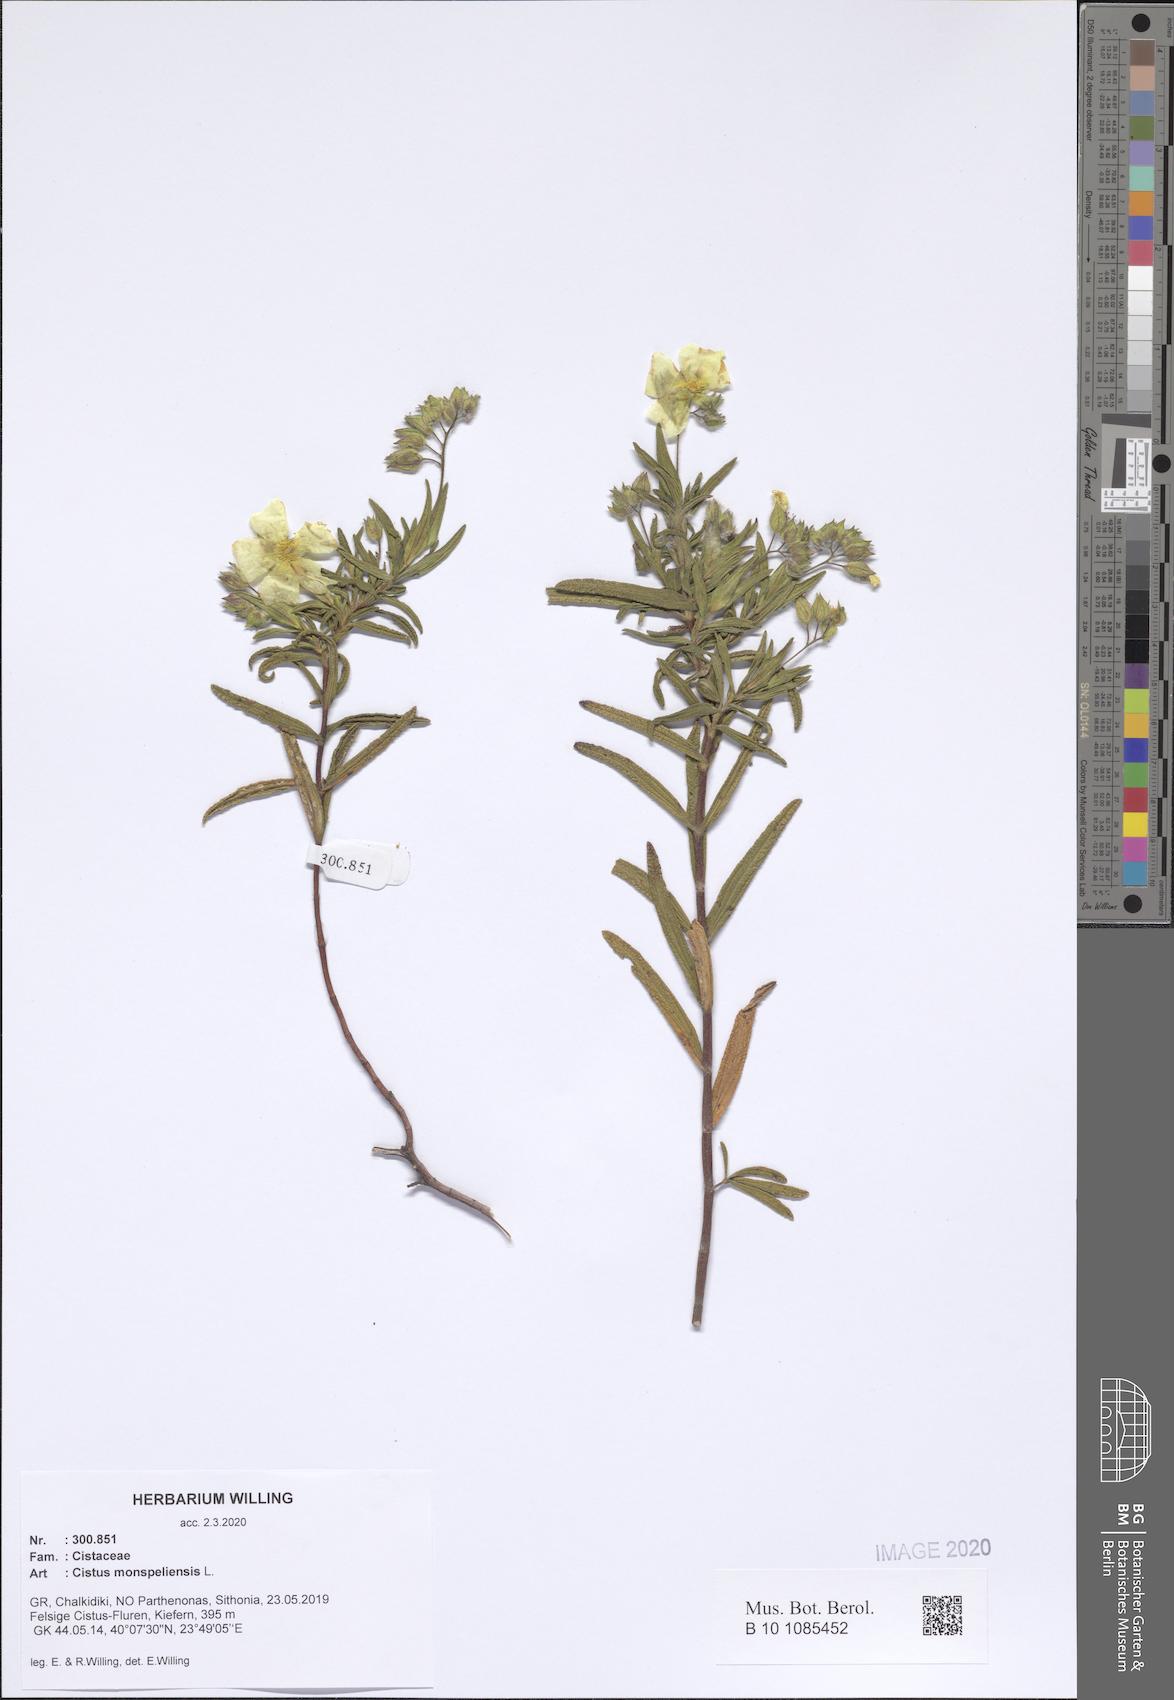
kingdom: Plantae
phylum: Tracheophyta
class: Magnoliopsida
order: Malvales
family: Cistaceae
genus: Cistus
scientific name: Cistus monspeliensis
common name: Montpelier cistus
